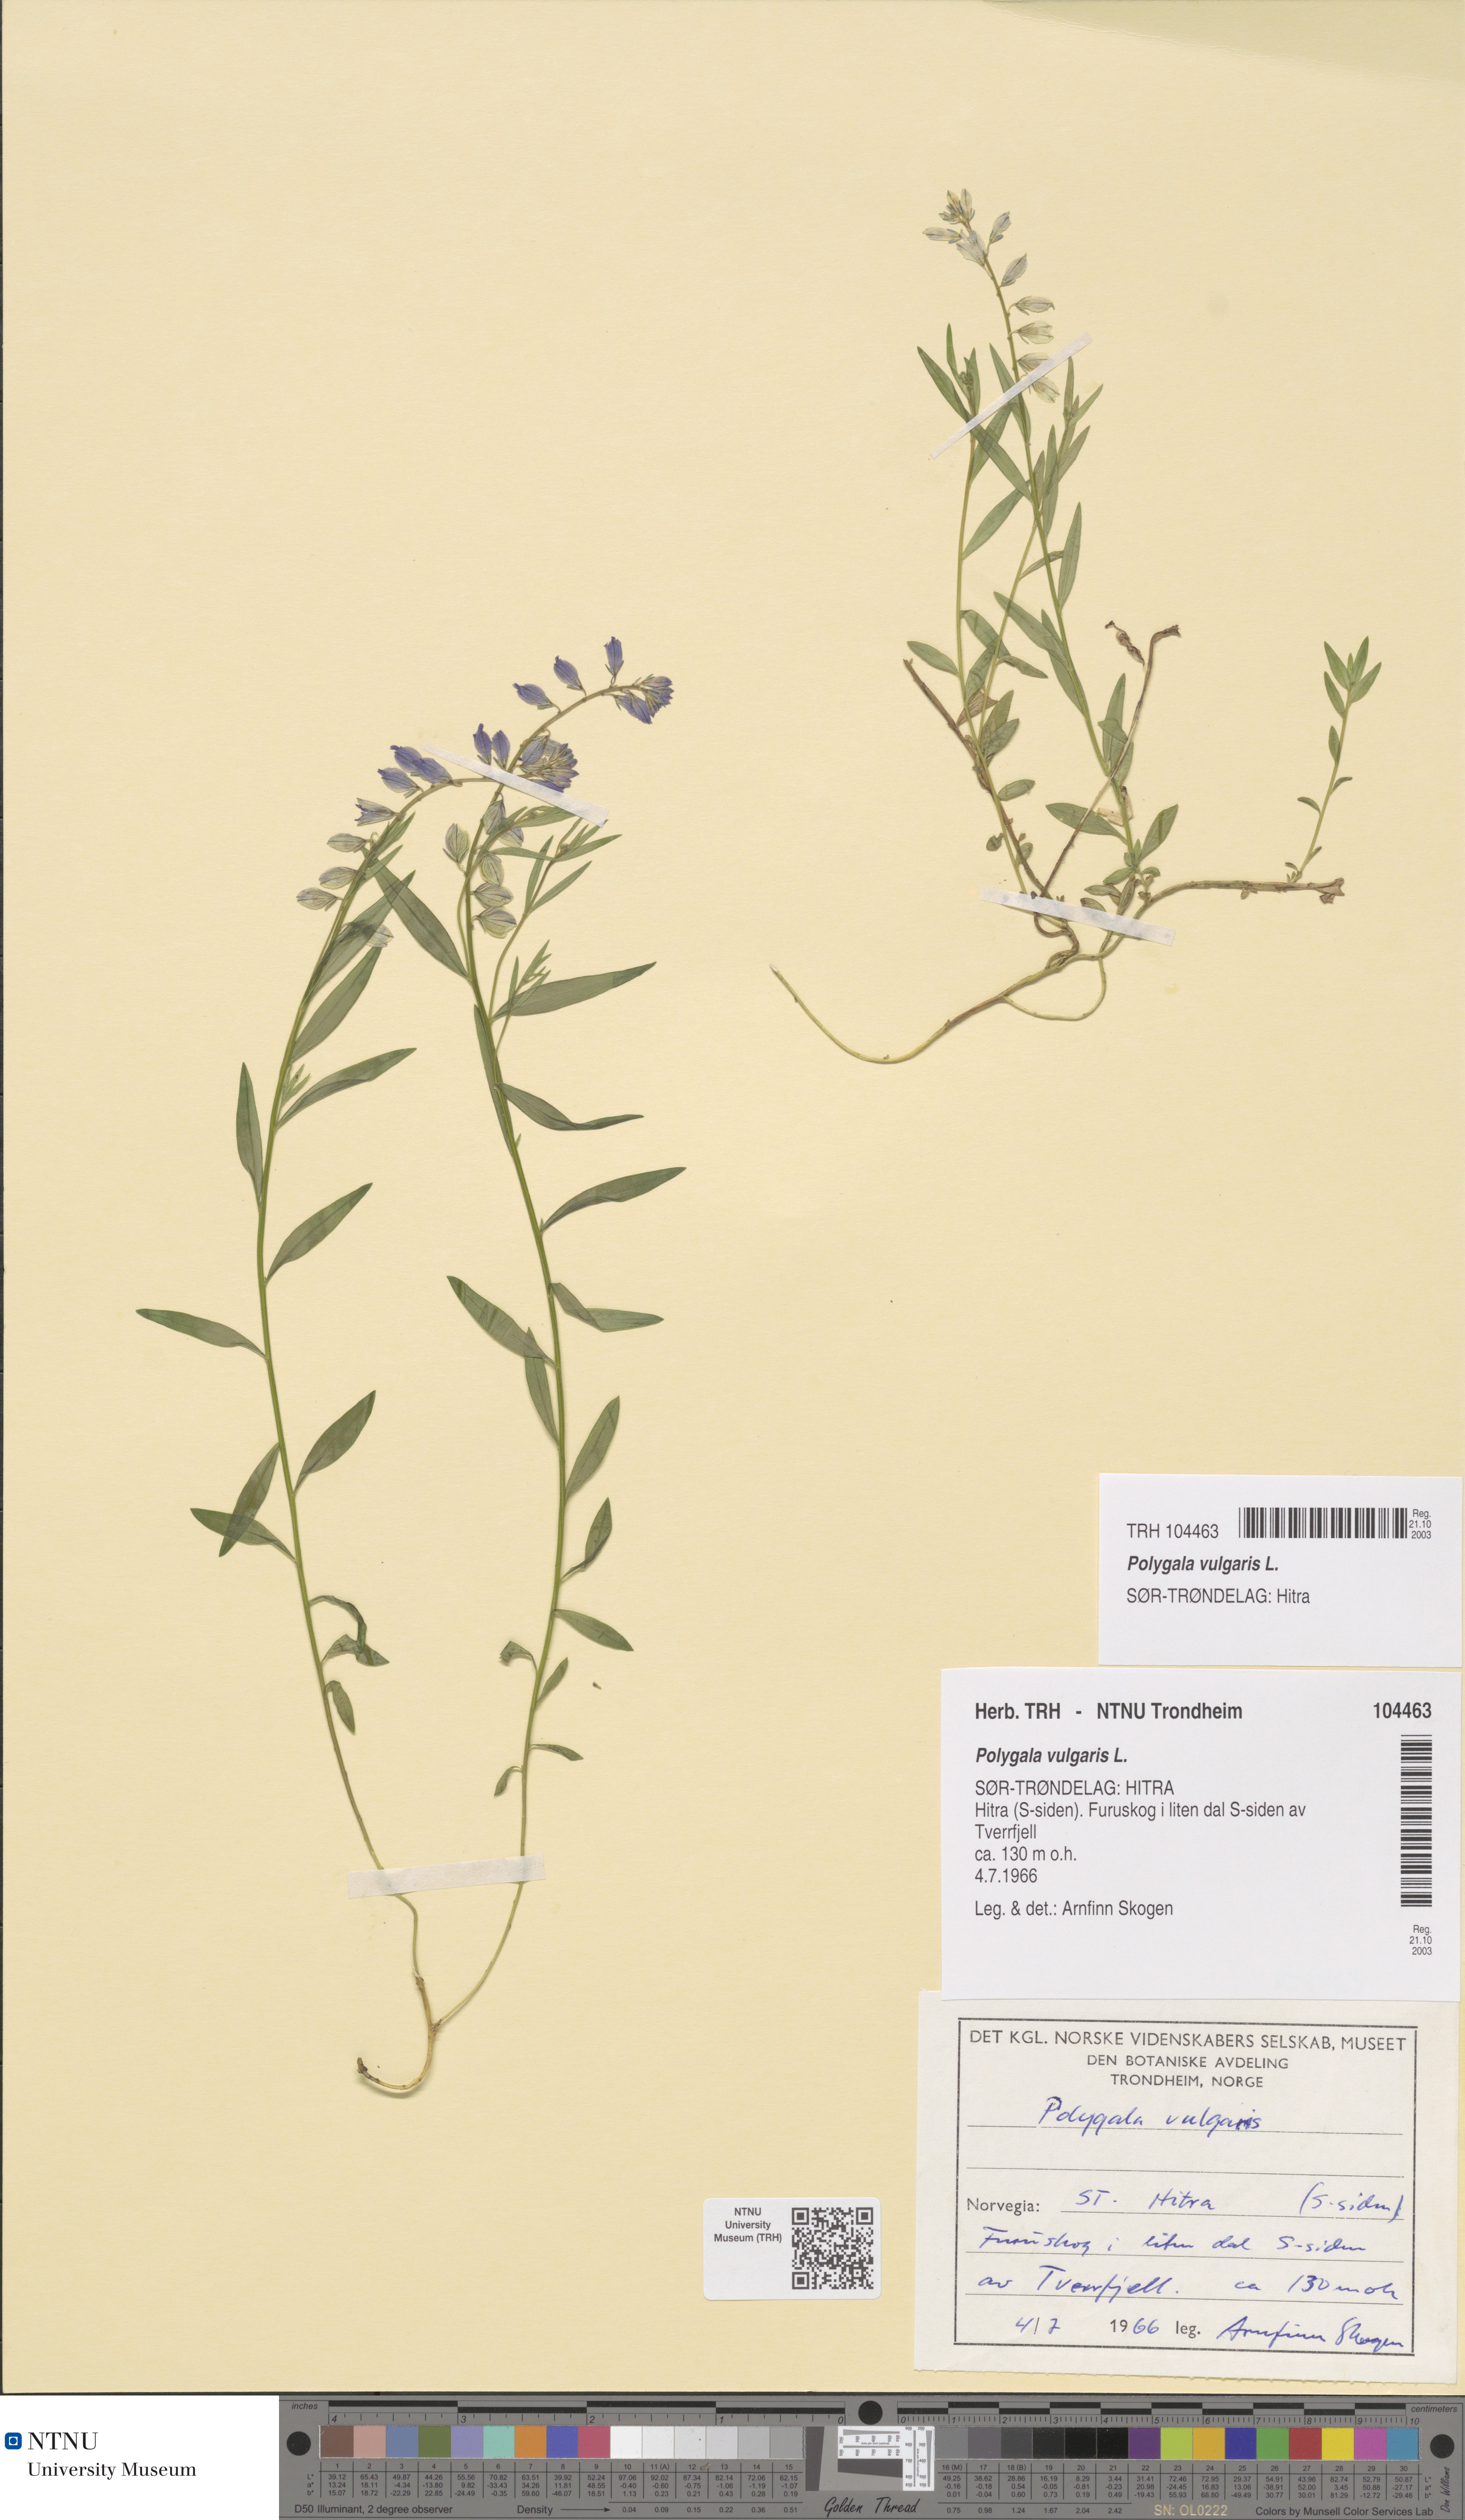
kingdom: Plantae
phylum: Tracheophyta
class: Magnoliopsida
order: Fabales
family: Polygalaceae
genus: Polygala
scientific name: Polygala vulgaris
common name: Common milkwort
